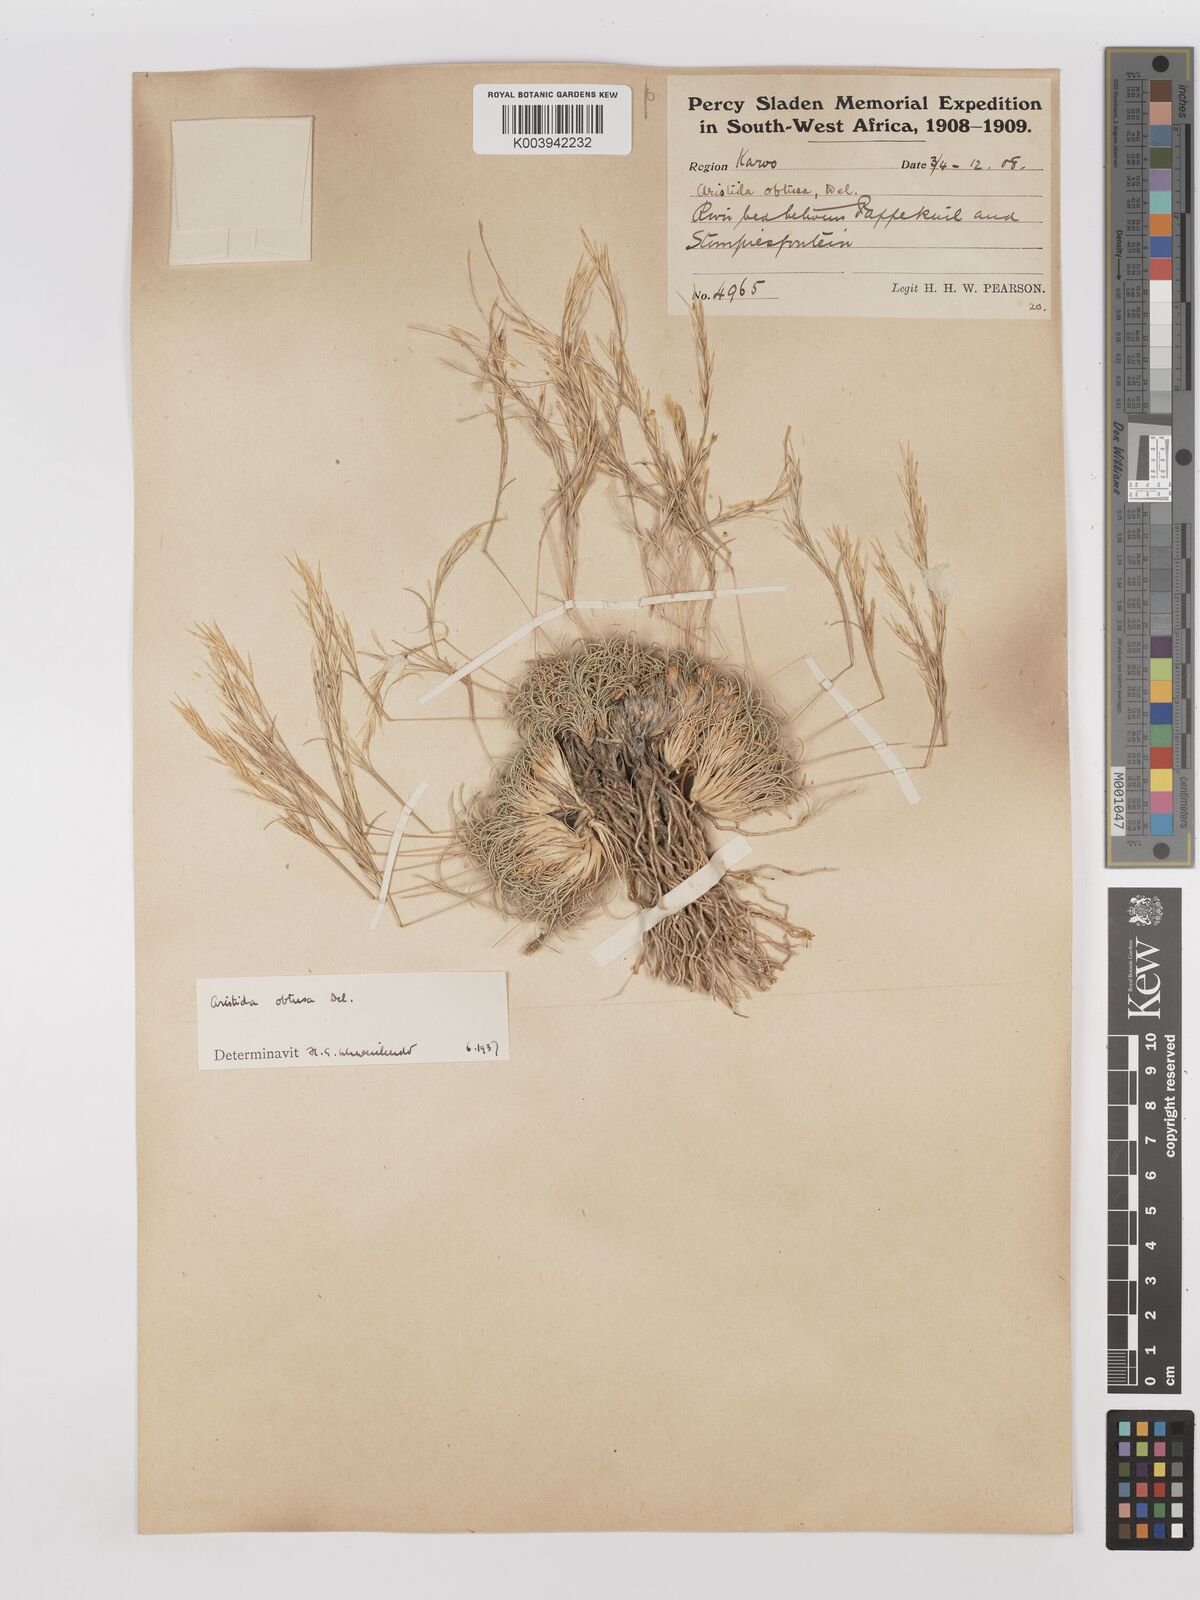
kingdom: Plantae
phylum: Tracheophyta
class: Liliopsida
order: Poales
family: Poaceae
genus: Stipagrostis
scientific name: Stipagrostis obtusa
